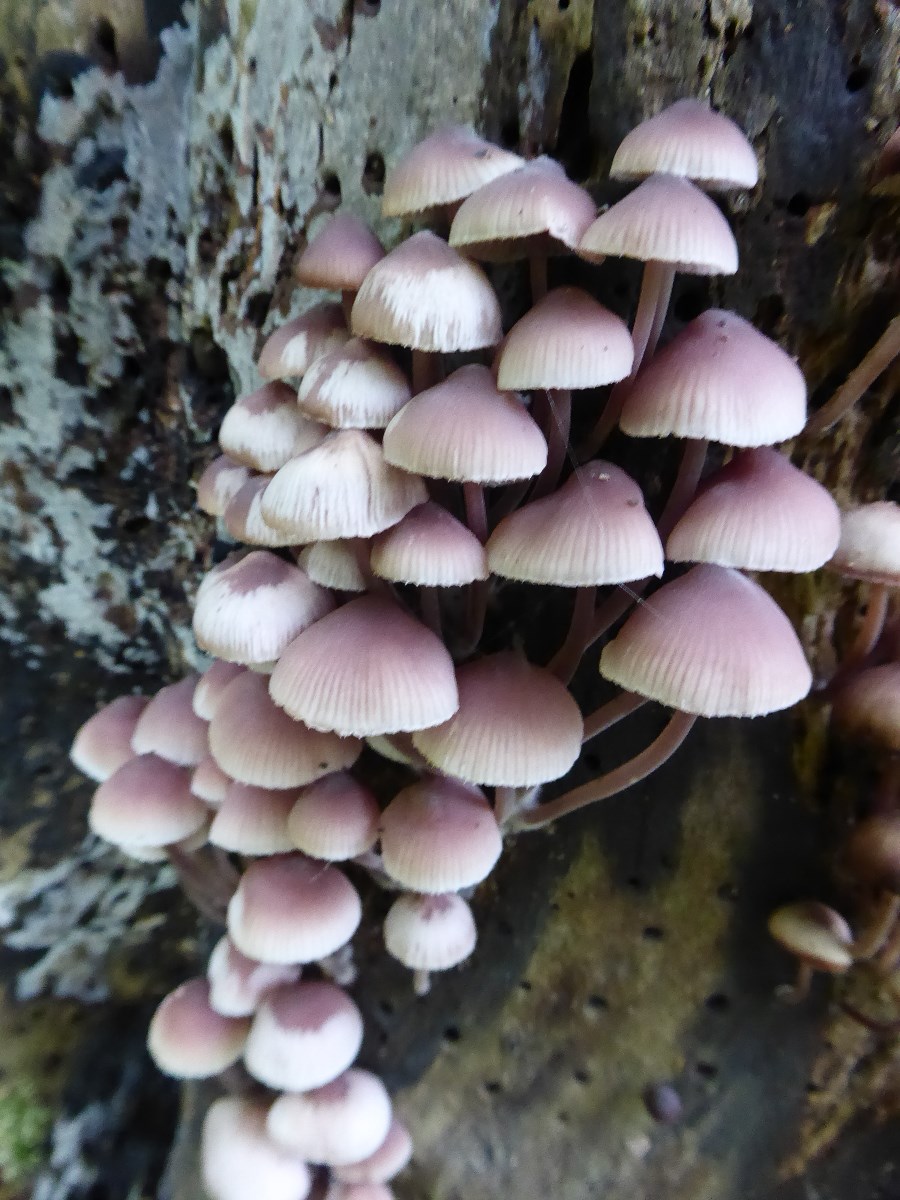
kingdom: Fungi
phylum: Basidiomycota
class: Agaricomycetes
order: Agaricales
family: Mycenaceae
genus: Mycena
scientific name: Mycena haematopus
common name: blødende huesvamp
